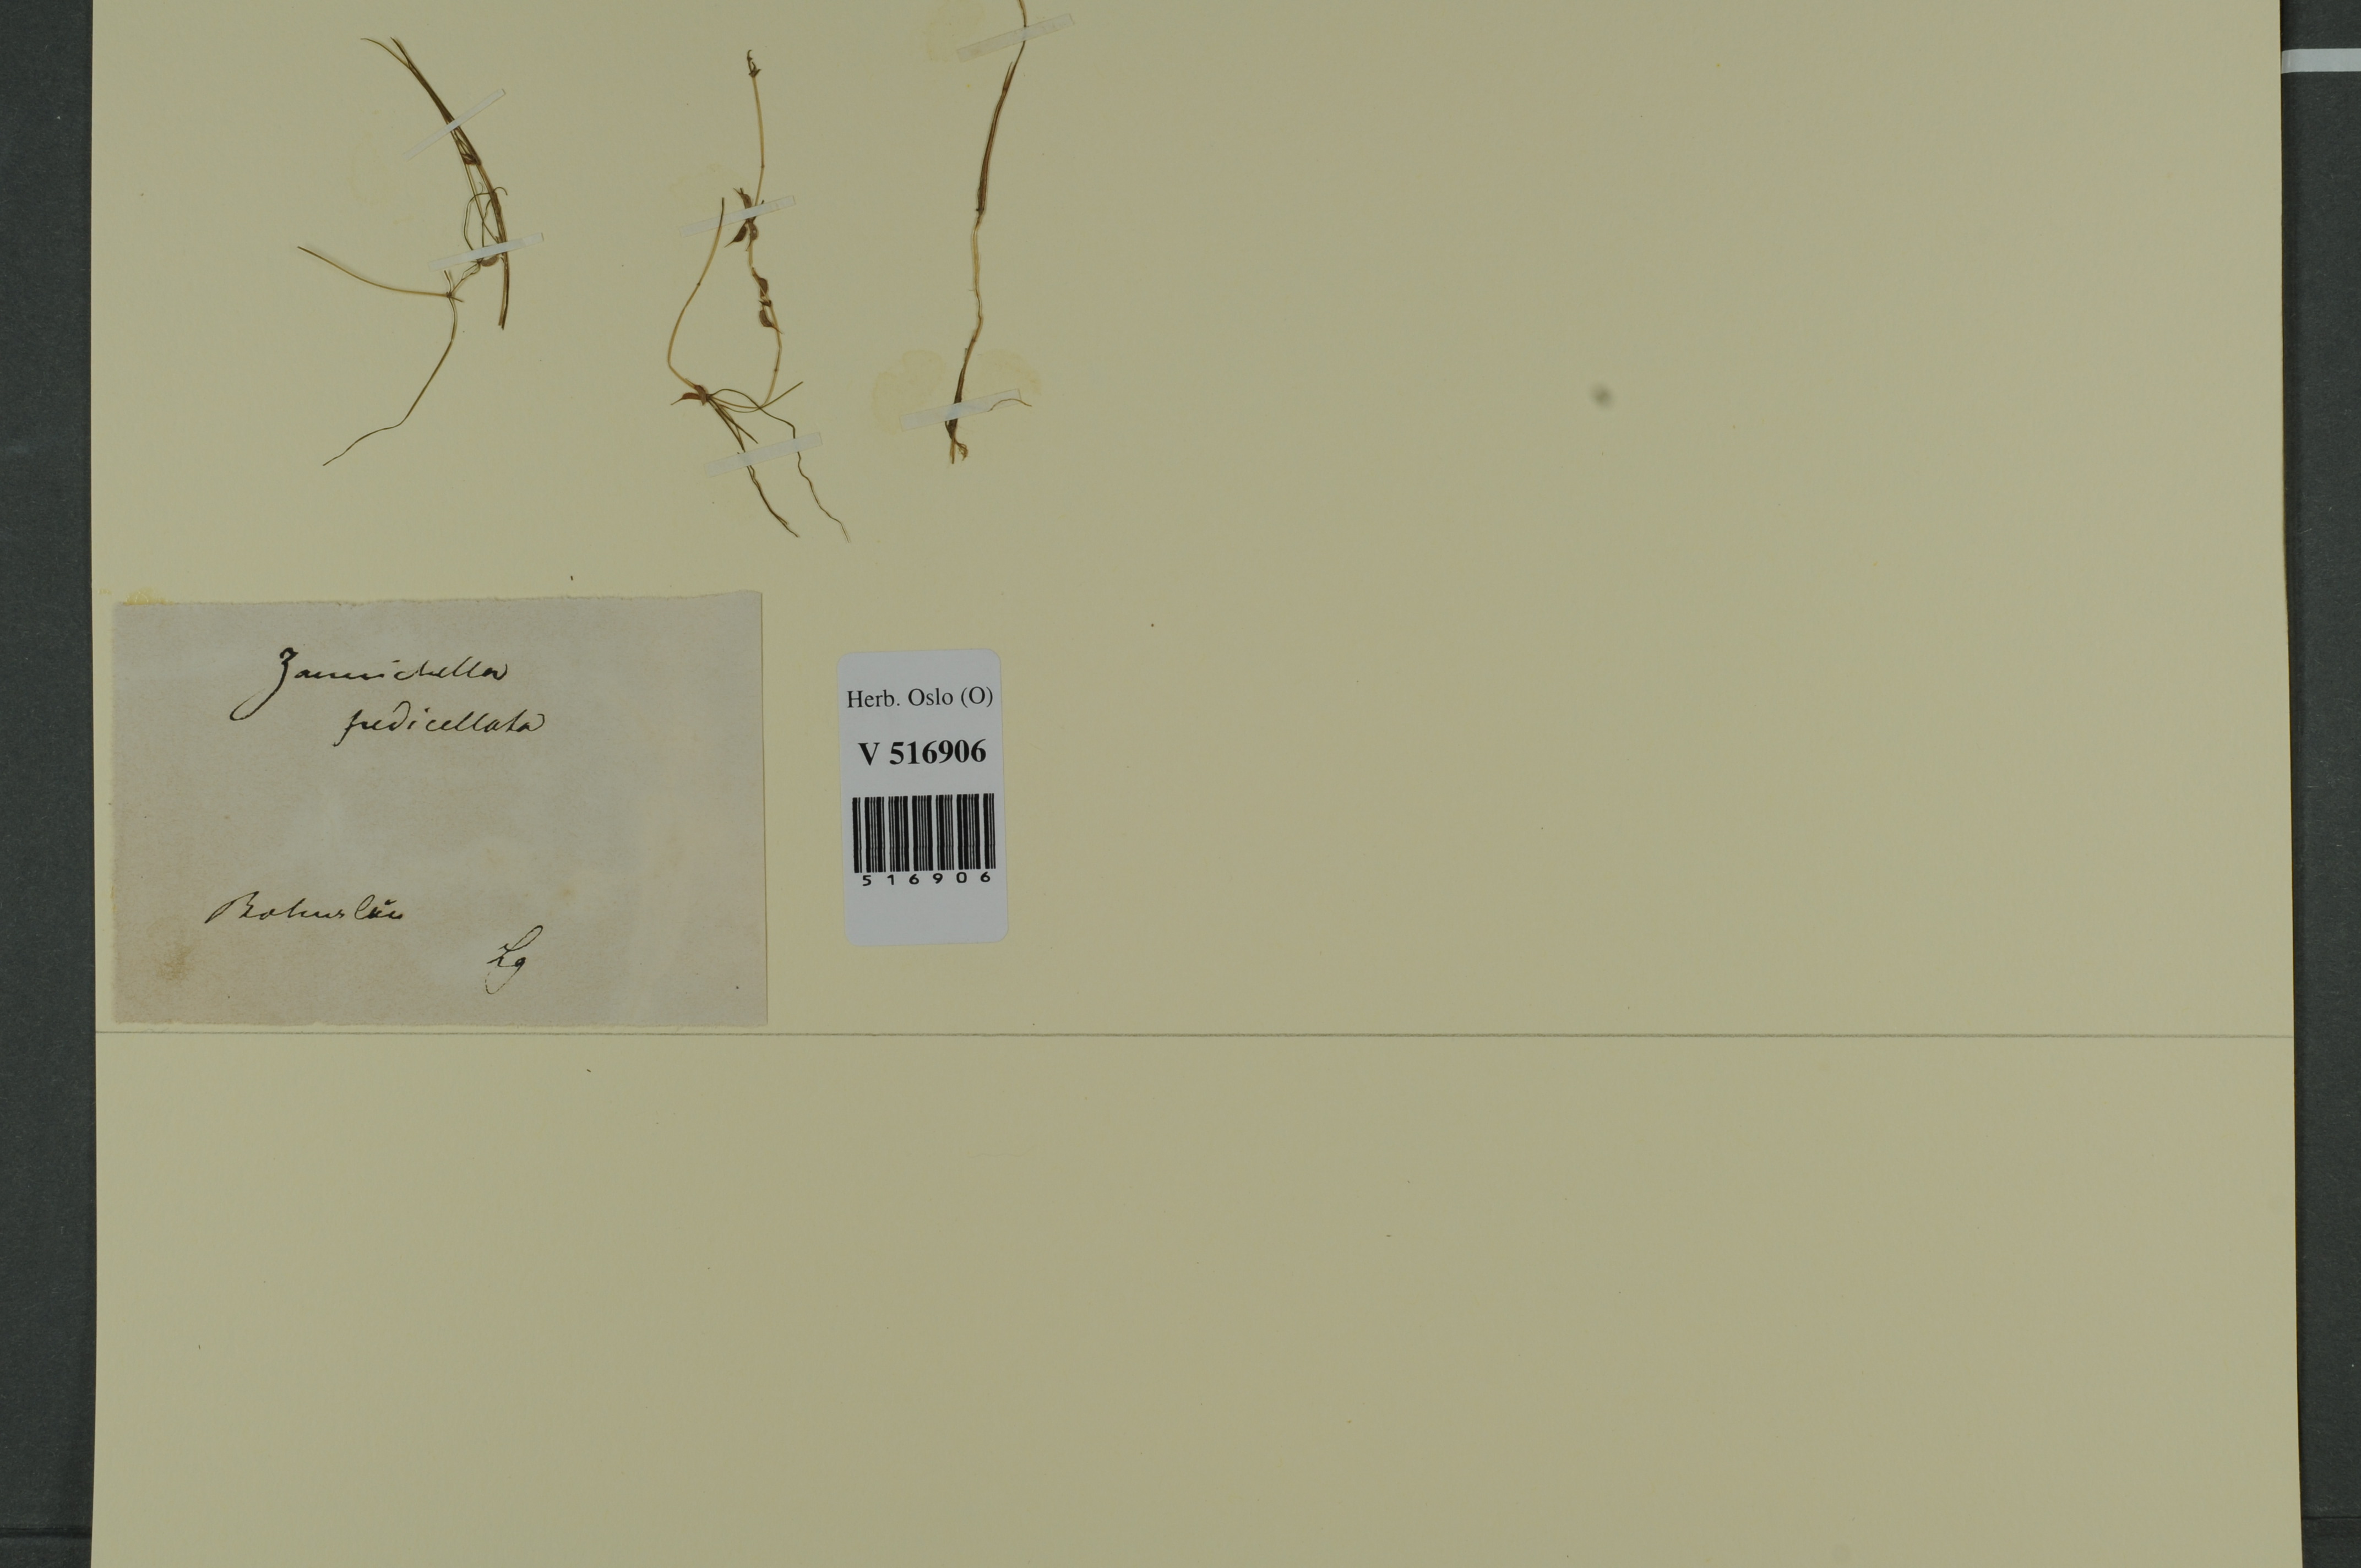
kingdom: Plantae
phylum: Tracheophyta
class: Liliopsida
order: Alismatales
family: Potamogetonaceae
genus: Zannichellia
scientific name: Zannichellia palustris
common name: Horned pondweed
